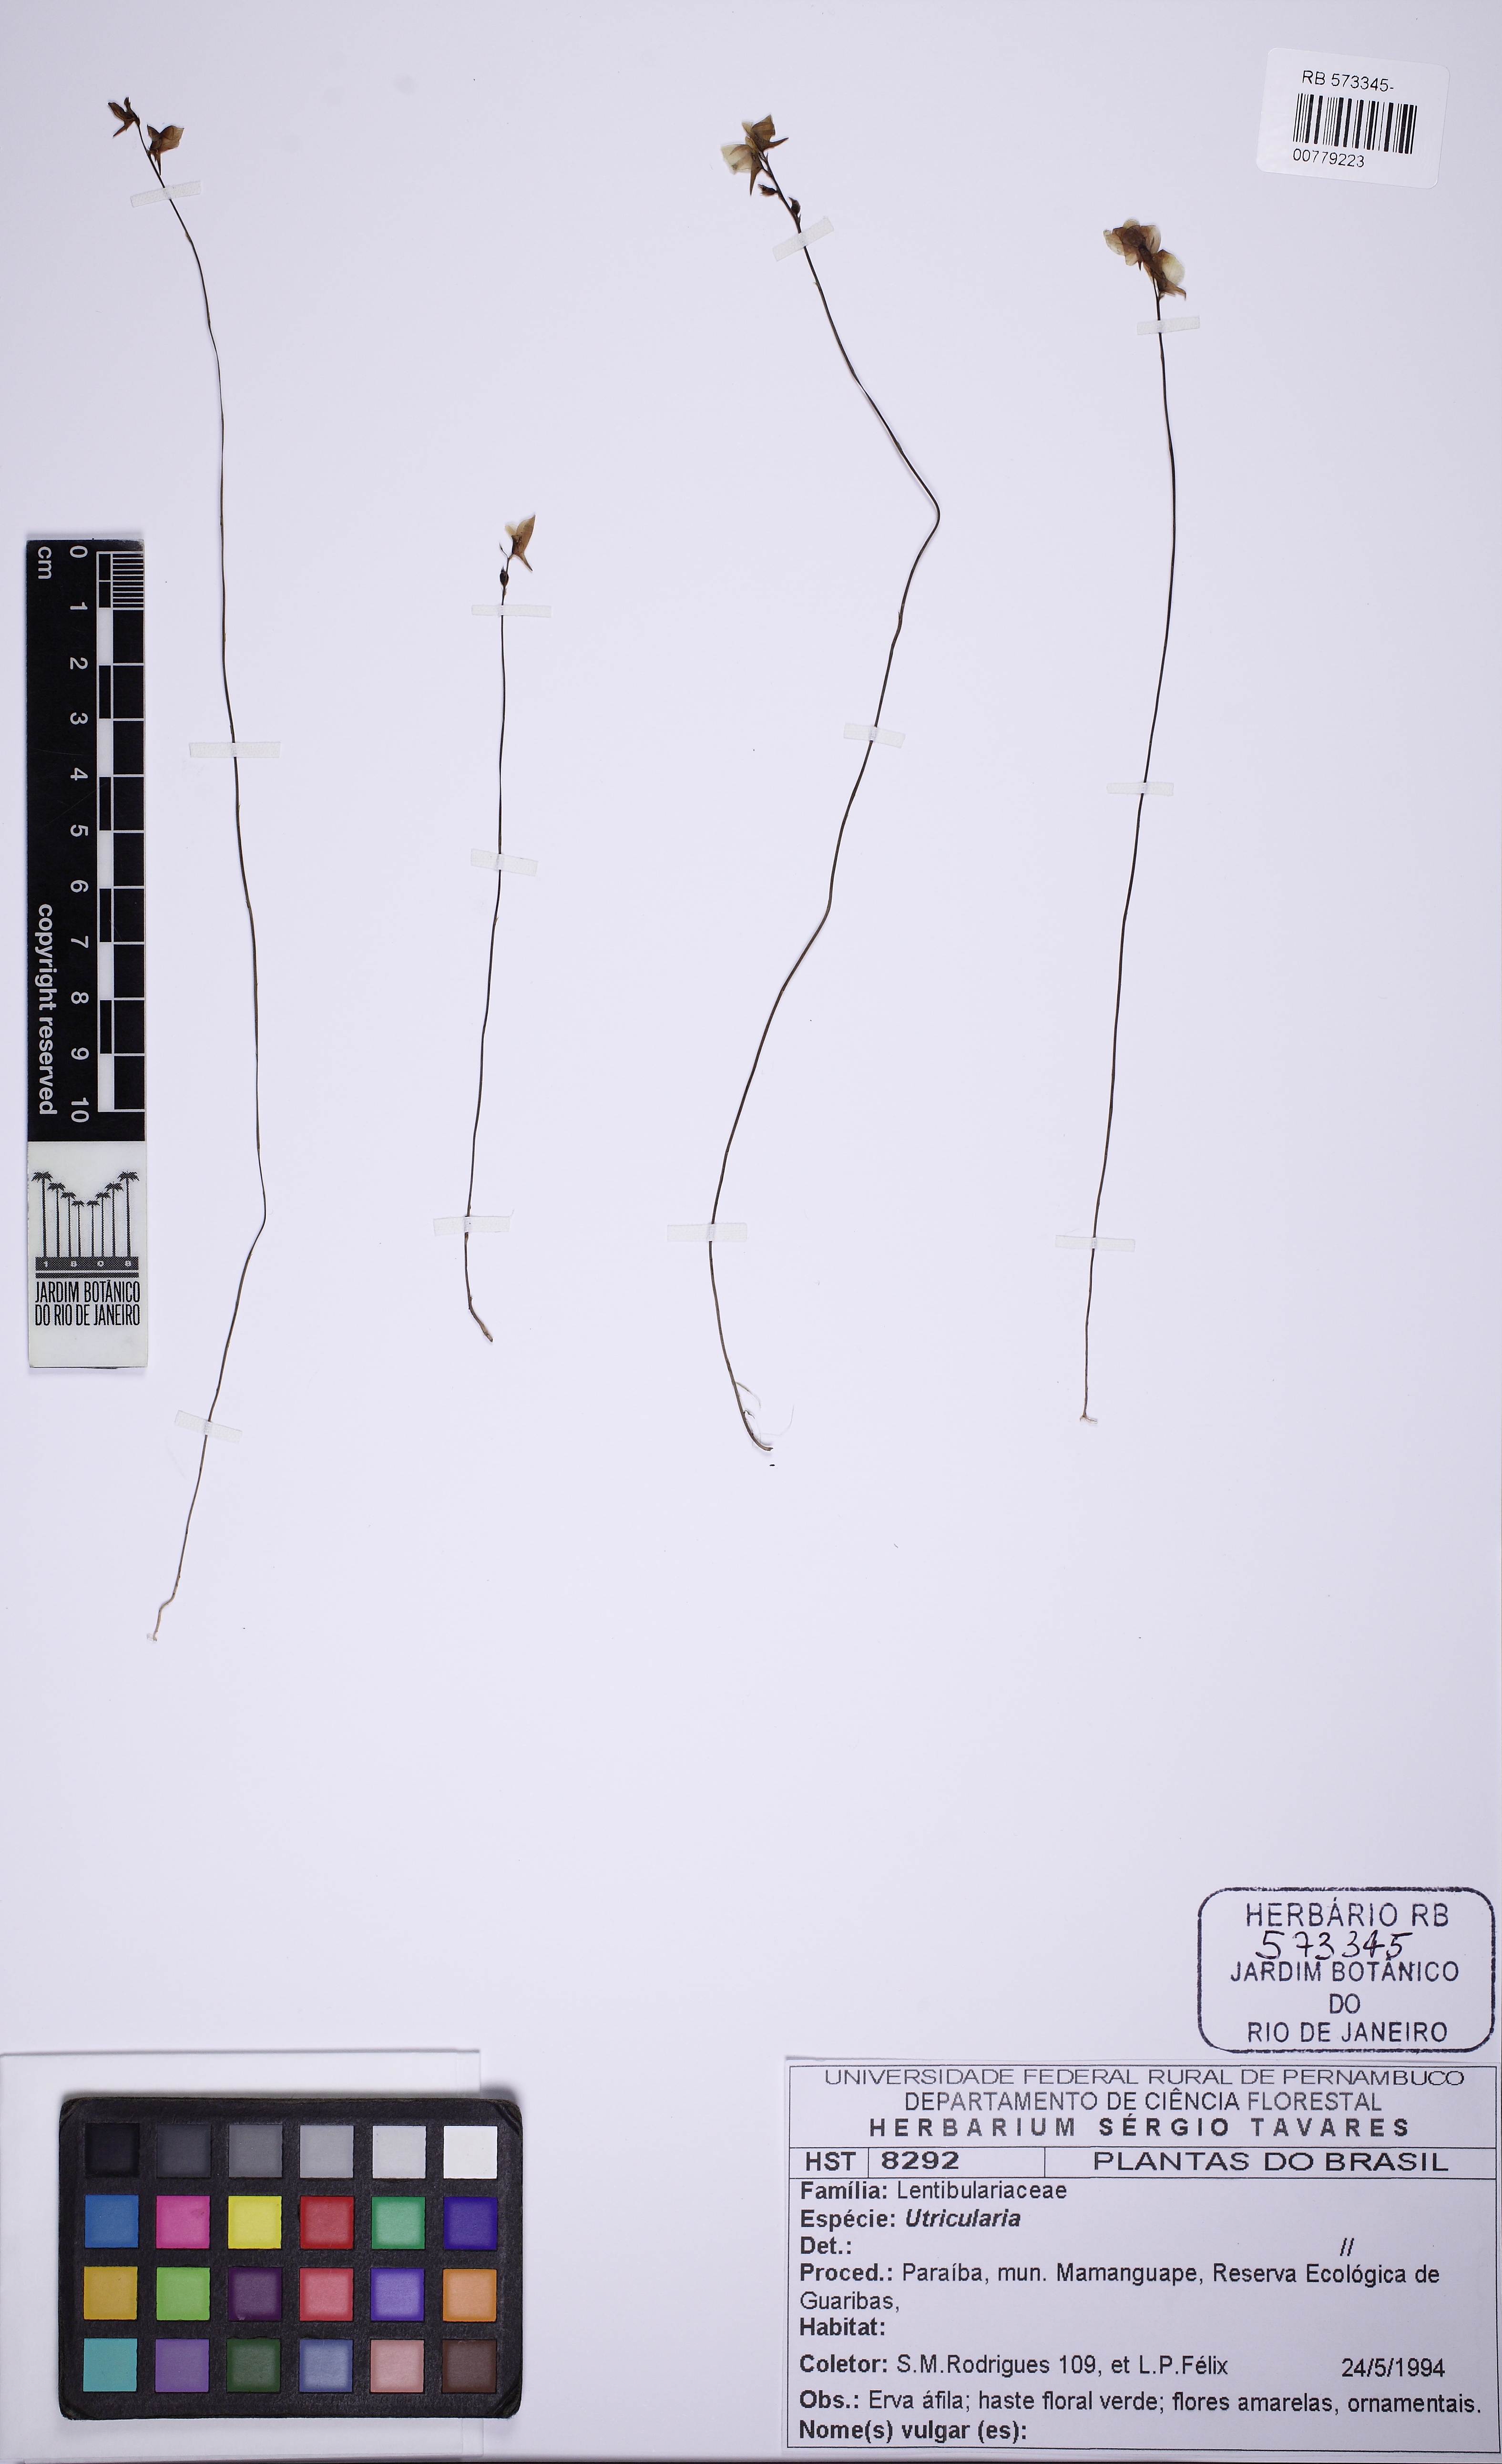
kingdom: Plantae
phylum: Tracheophyta
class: Magnoliopsida
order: Lamiales
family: Lentibulariaceae
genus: Utricularia
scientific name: Utricularia juncea
